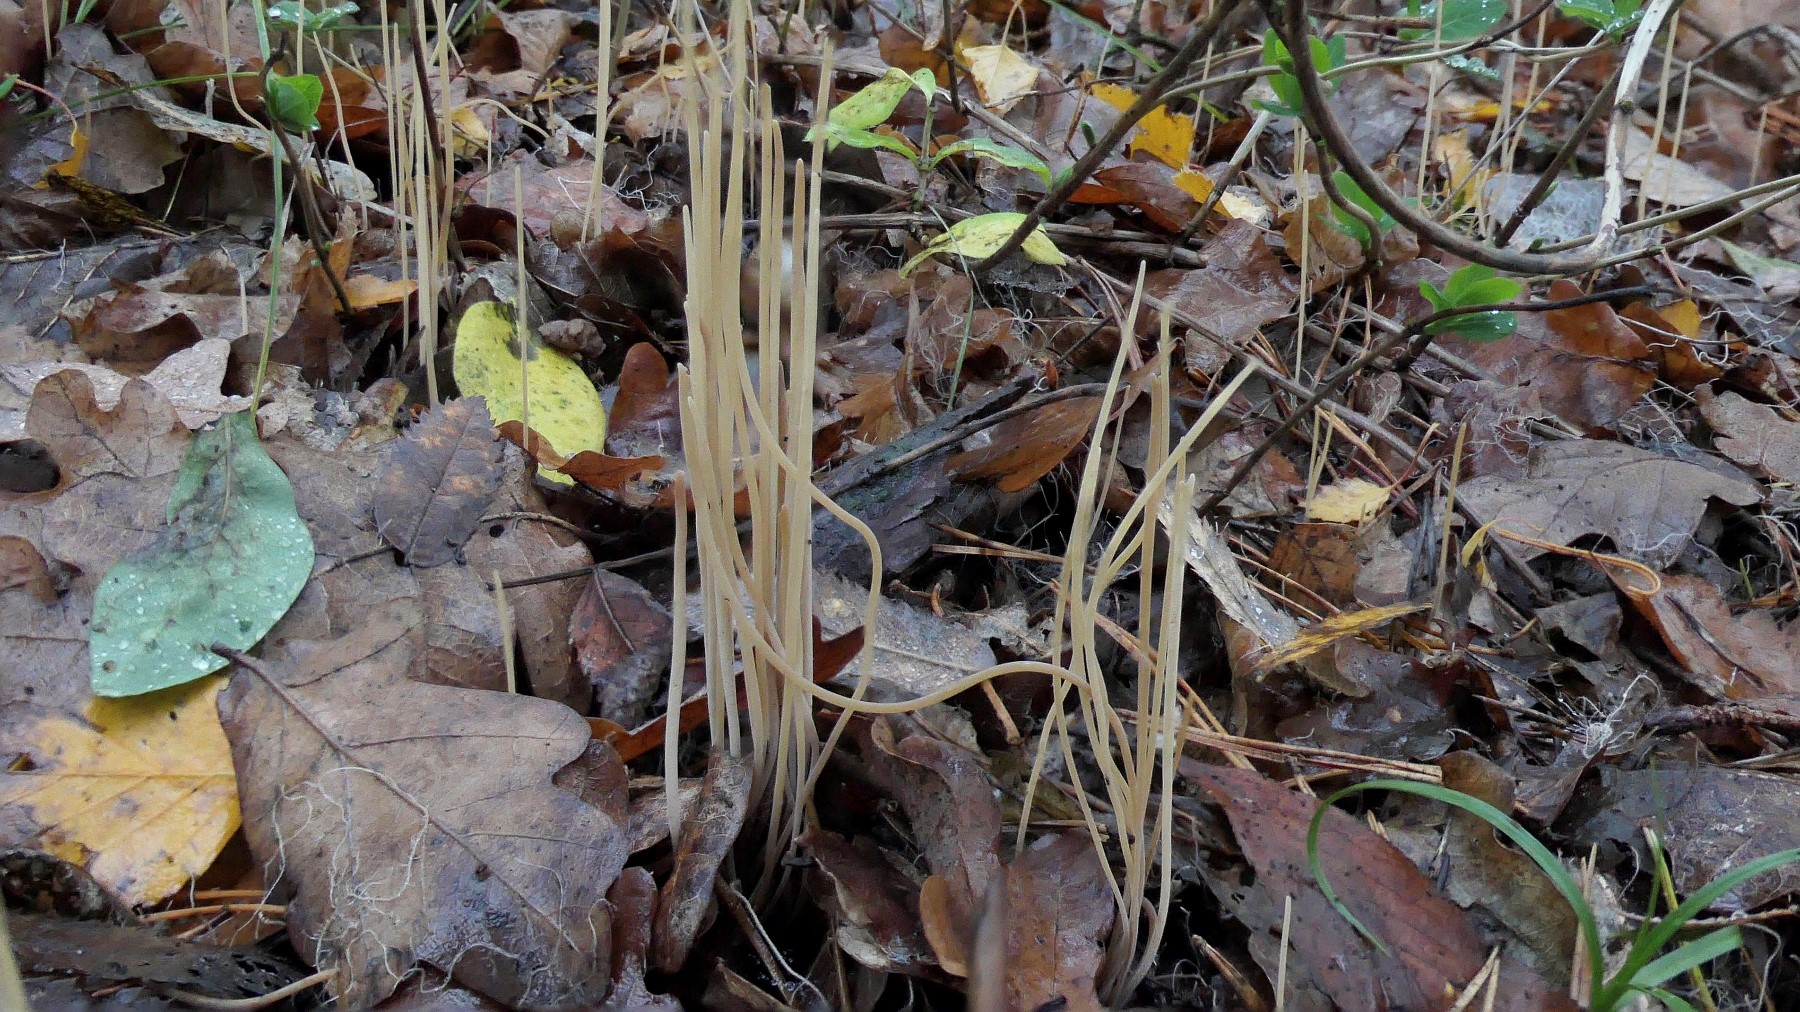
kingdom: Fungi
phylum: Basidiomycota
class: Agaricomycetes
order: Agaricales
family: Typhulaceae
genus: Typhula
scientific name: Typhula juncea
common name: trådagtig rørkølle
